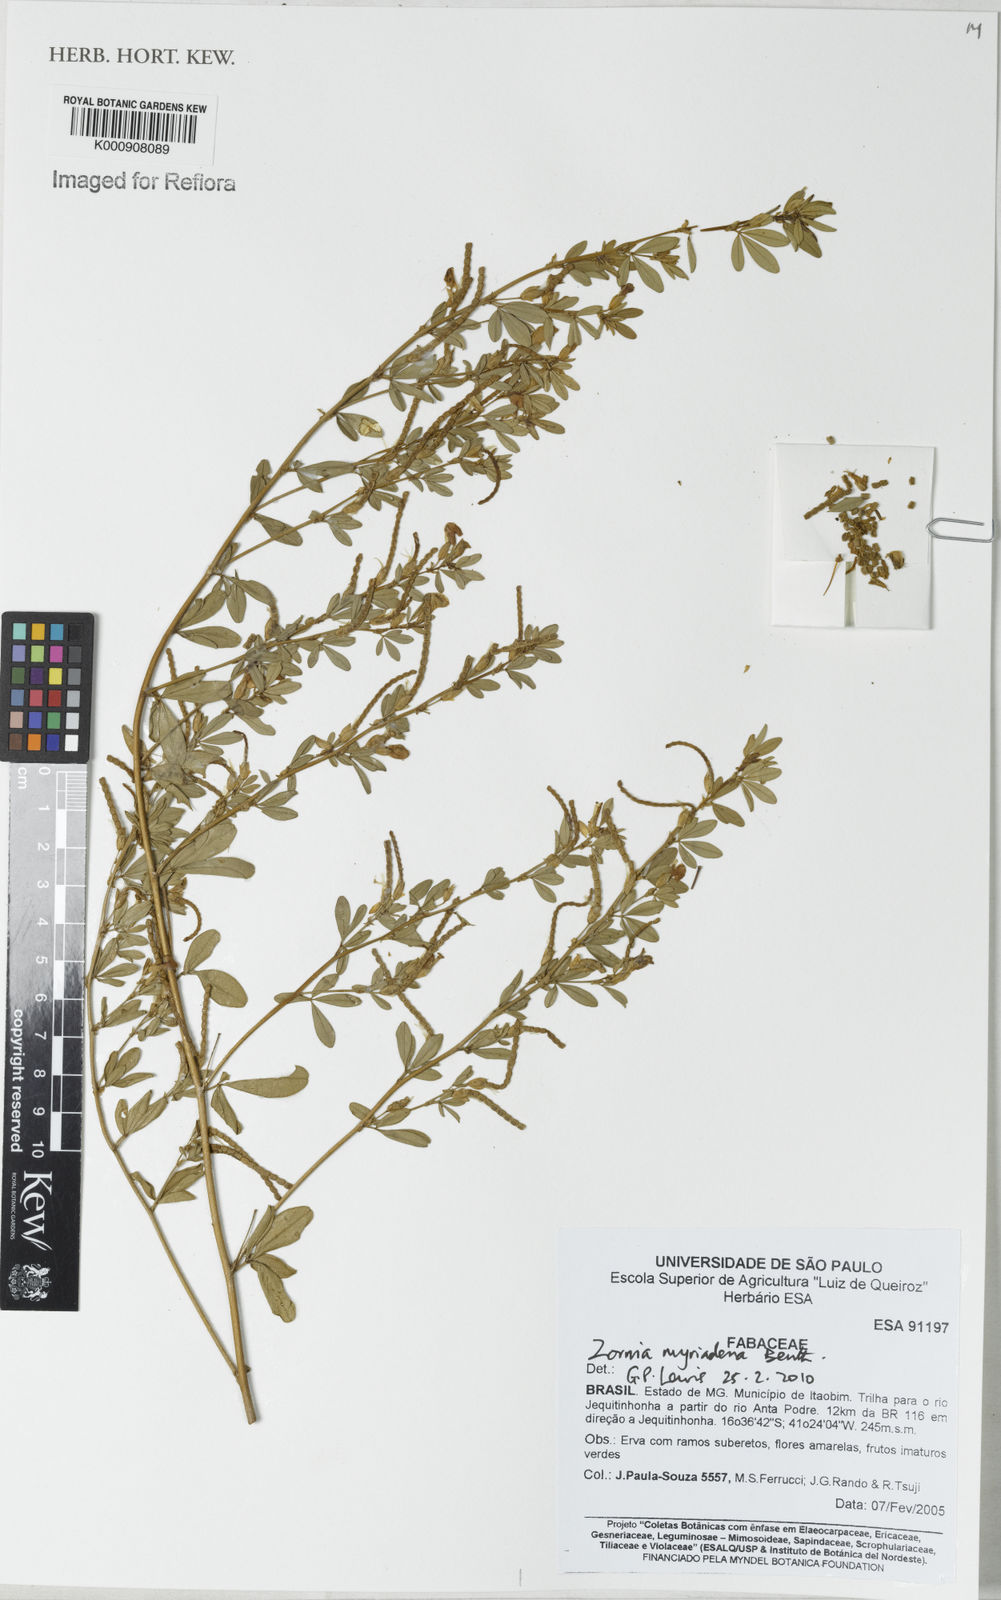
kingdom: Plantae
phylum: Tracheophyta
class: Magnoliopsida
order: Fabales
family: Fabaceae
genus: Zornia
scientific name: Zornia myriadena
